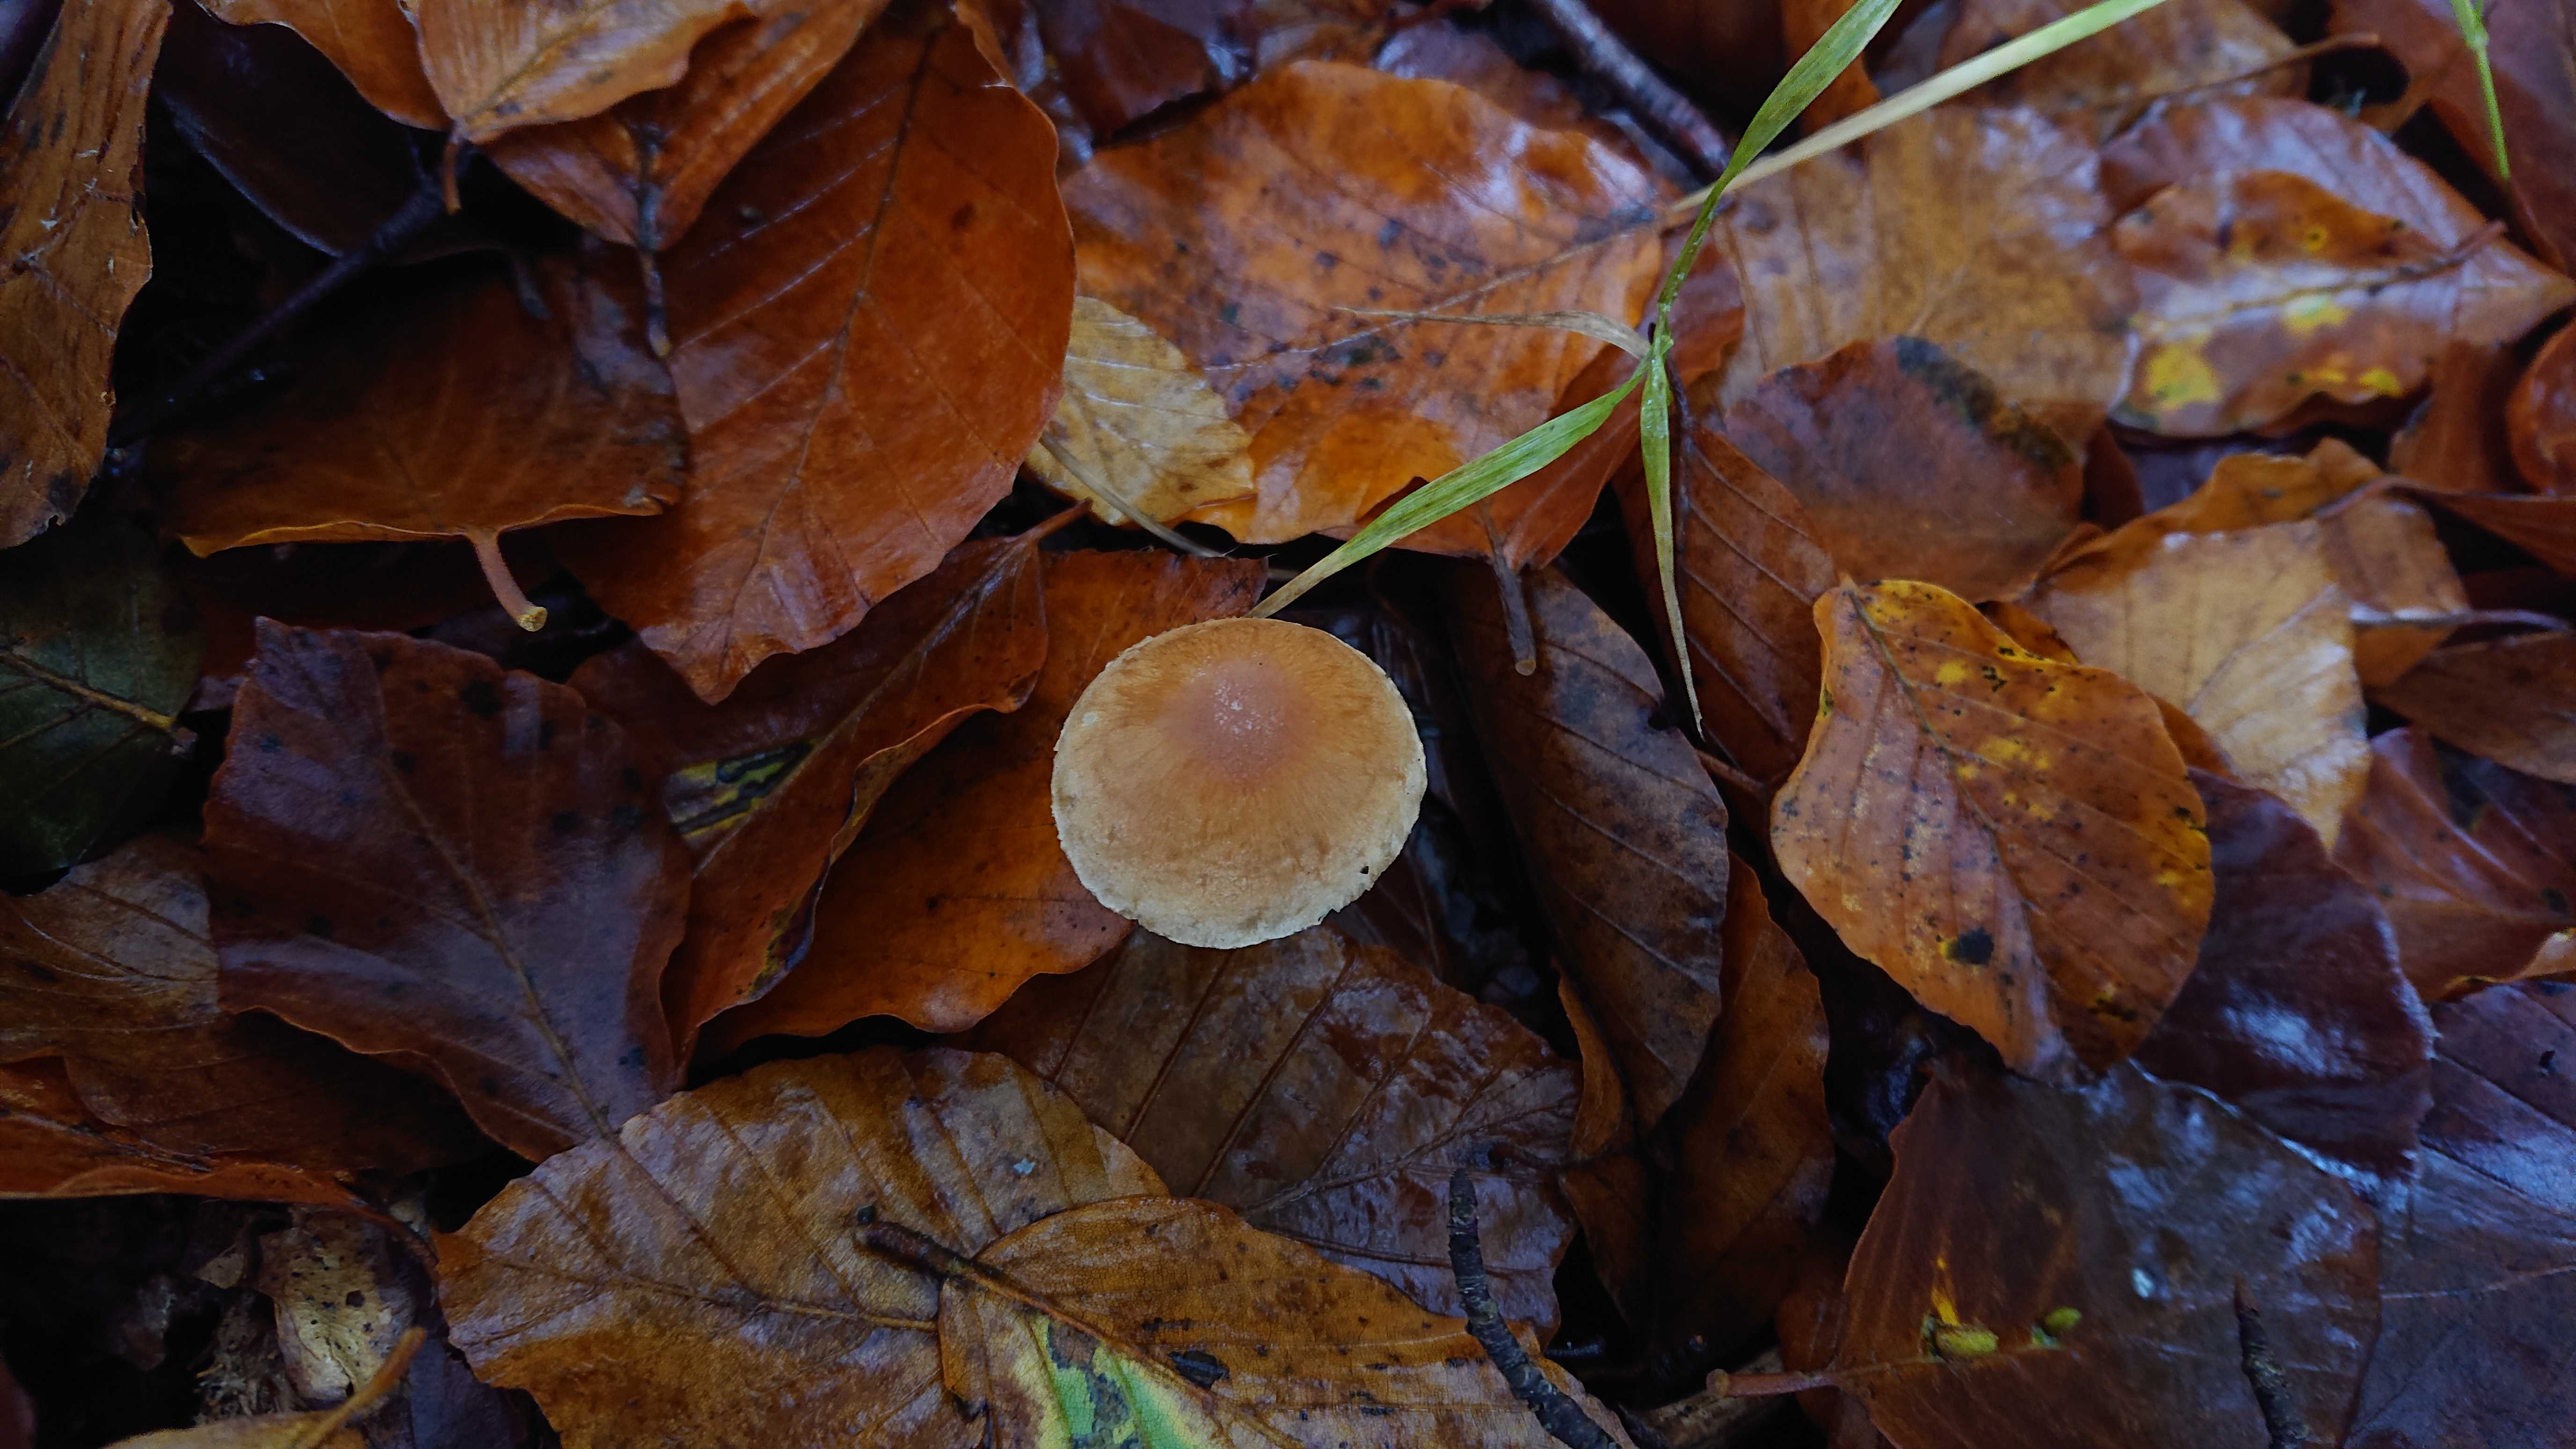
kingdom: Fungi
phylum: Basidiomycota
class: Agaricomycetes
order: Agaricales
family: Omphalotaceae
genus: Gymnopus
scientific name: Gymnopus
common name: fladhat
